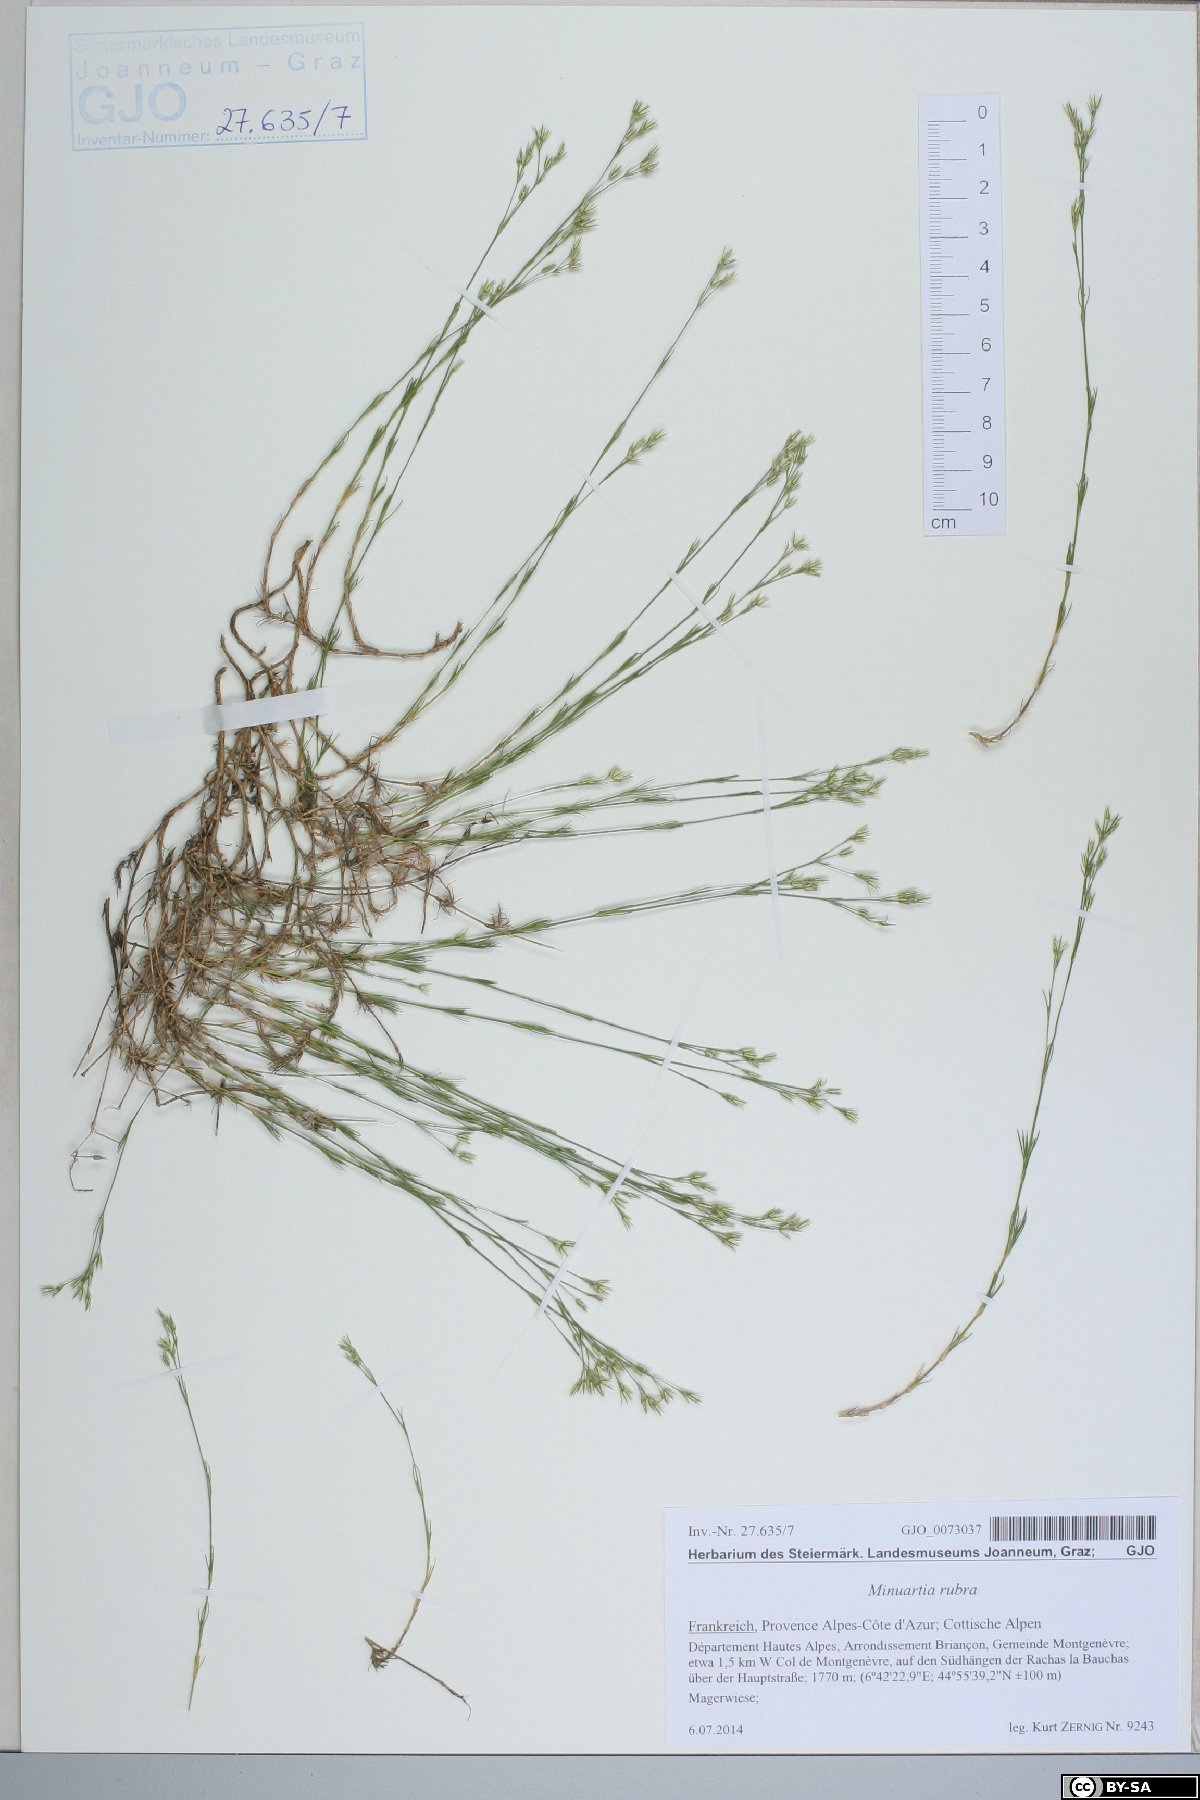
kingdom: Plantae
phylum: Tracheophyta
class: Magnoliopsida
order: Caryophyllales
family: Caryophyllaceae
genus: Minuartia
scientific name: Minuartia mucronata
